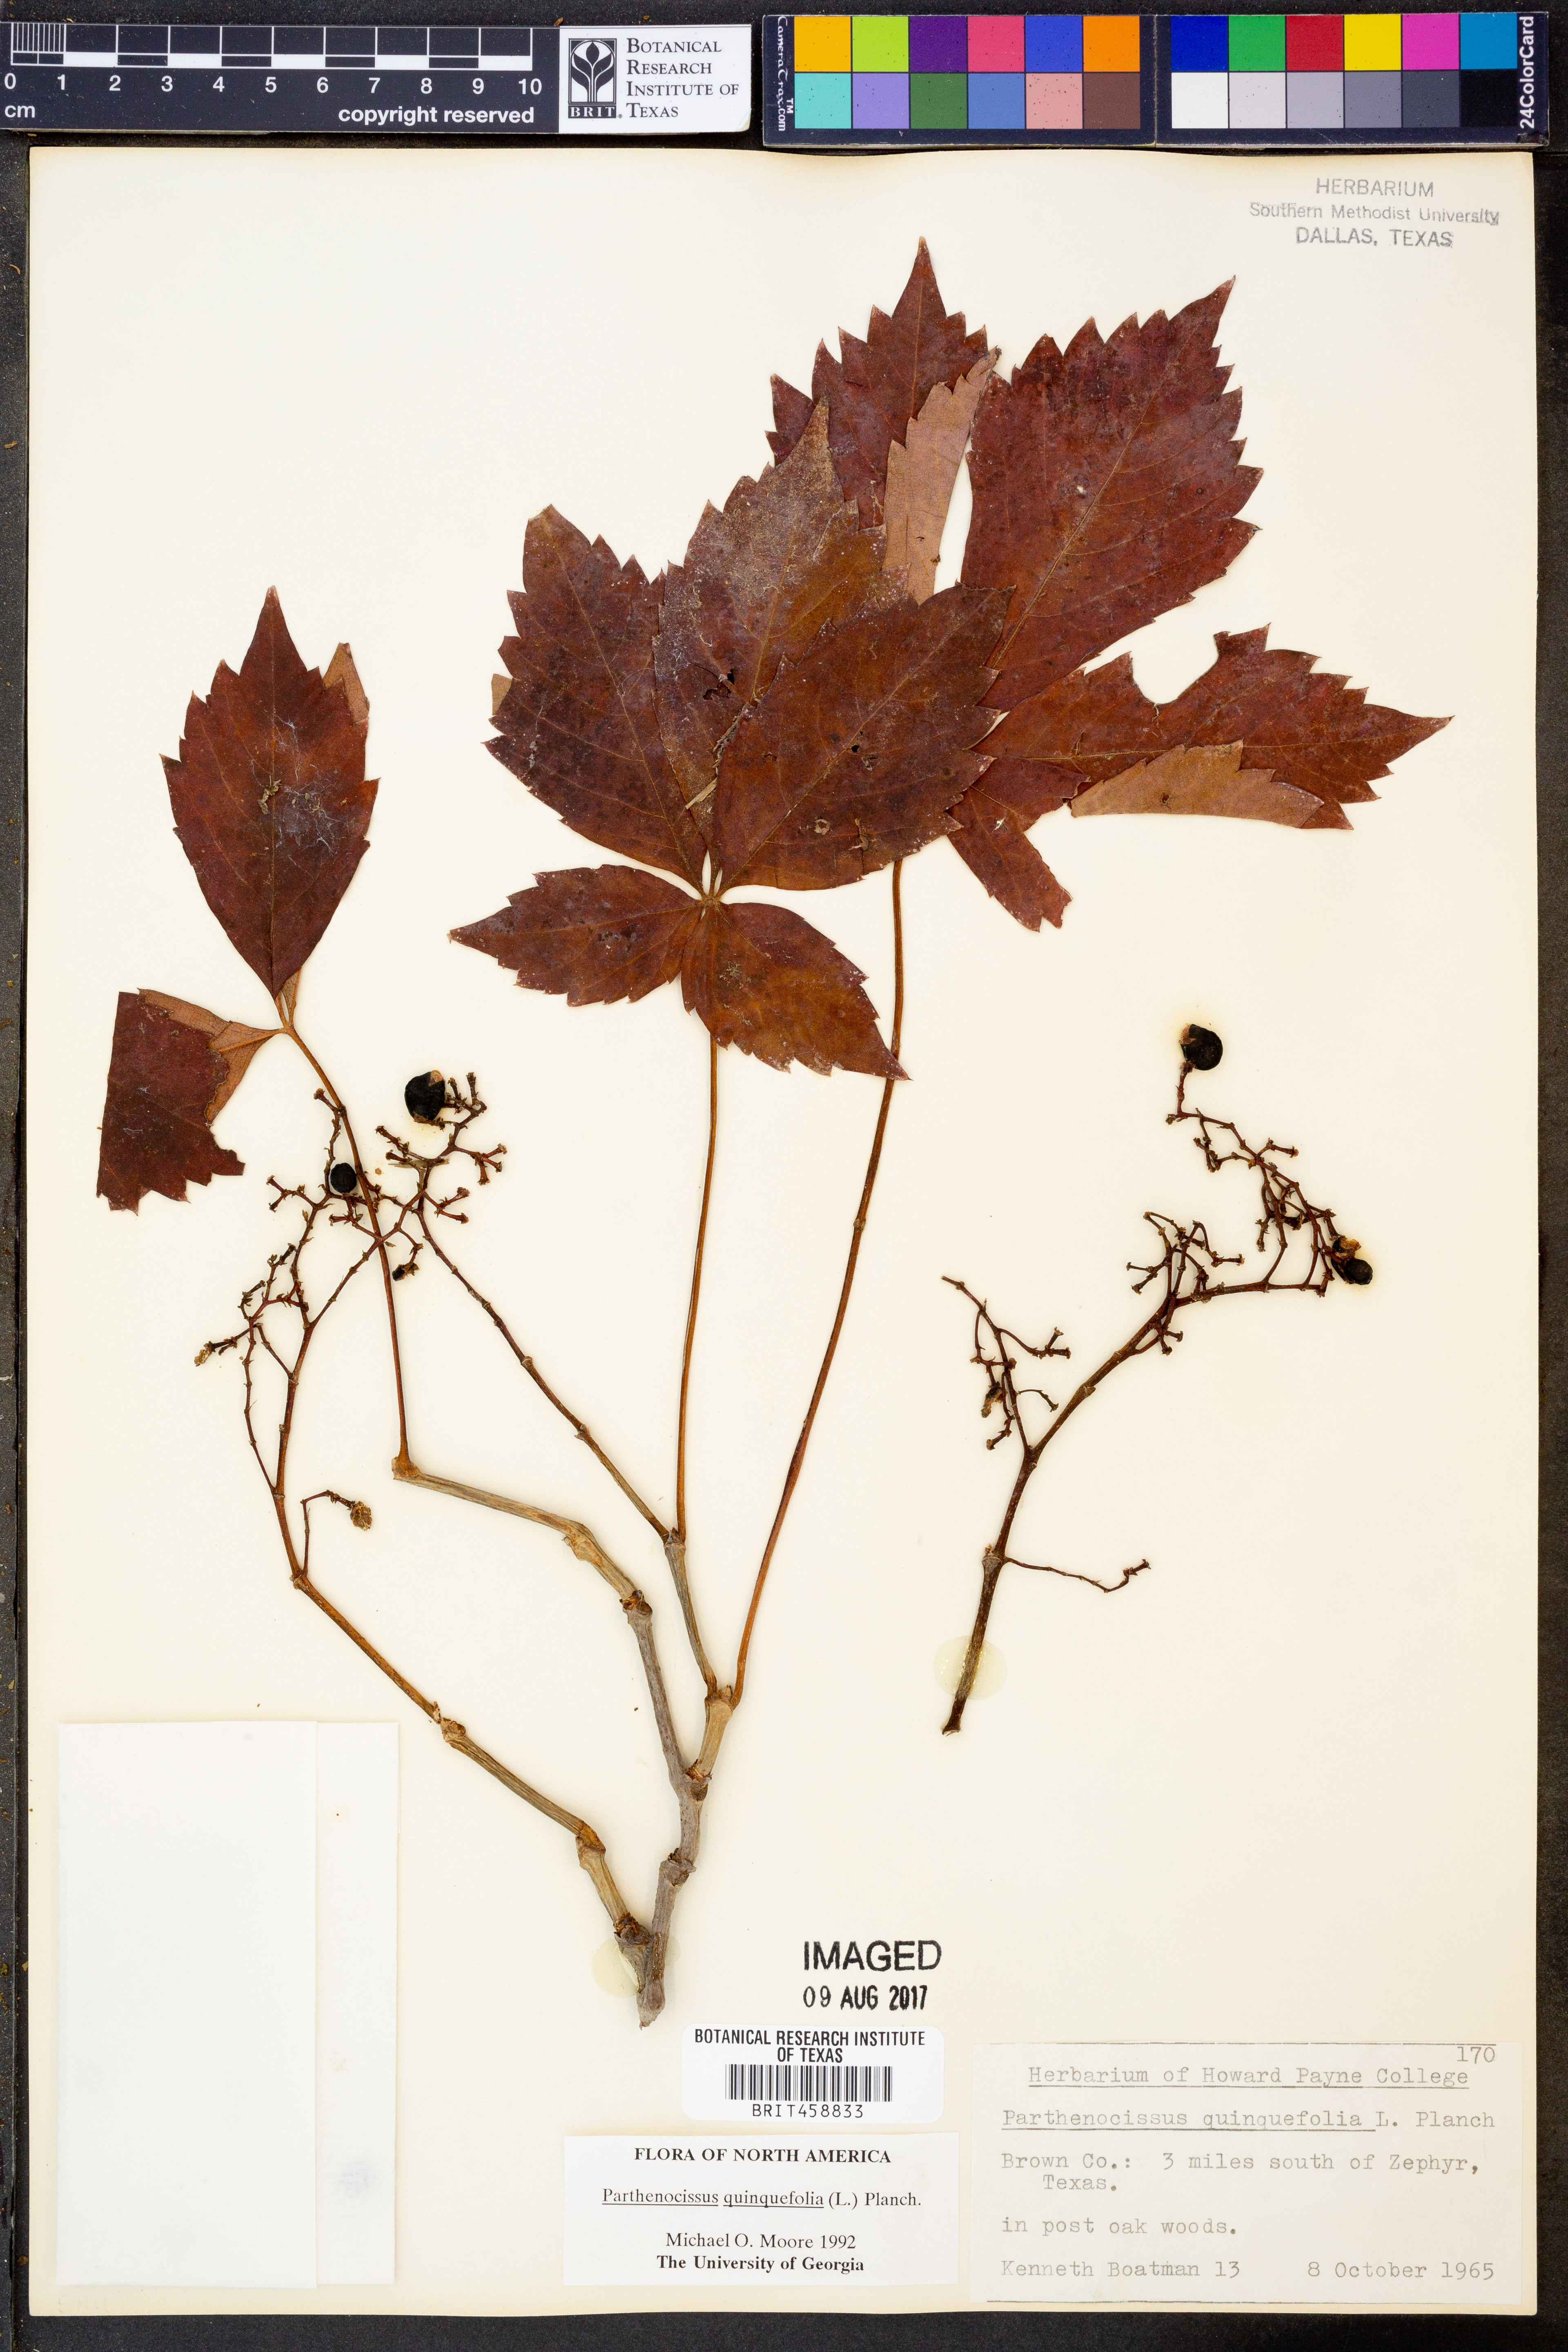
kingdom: Plantae
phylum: Tracheophyta
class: Magnoliopsida
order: Vitales
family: Vitaceae
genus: Parthenocissus
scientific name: Parthenocissus quinquefolia
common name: Virginia-creeper
